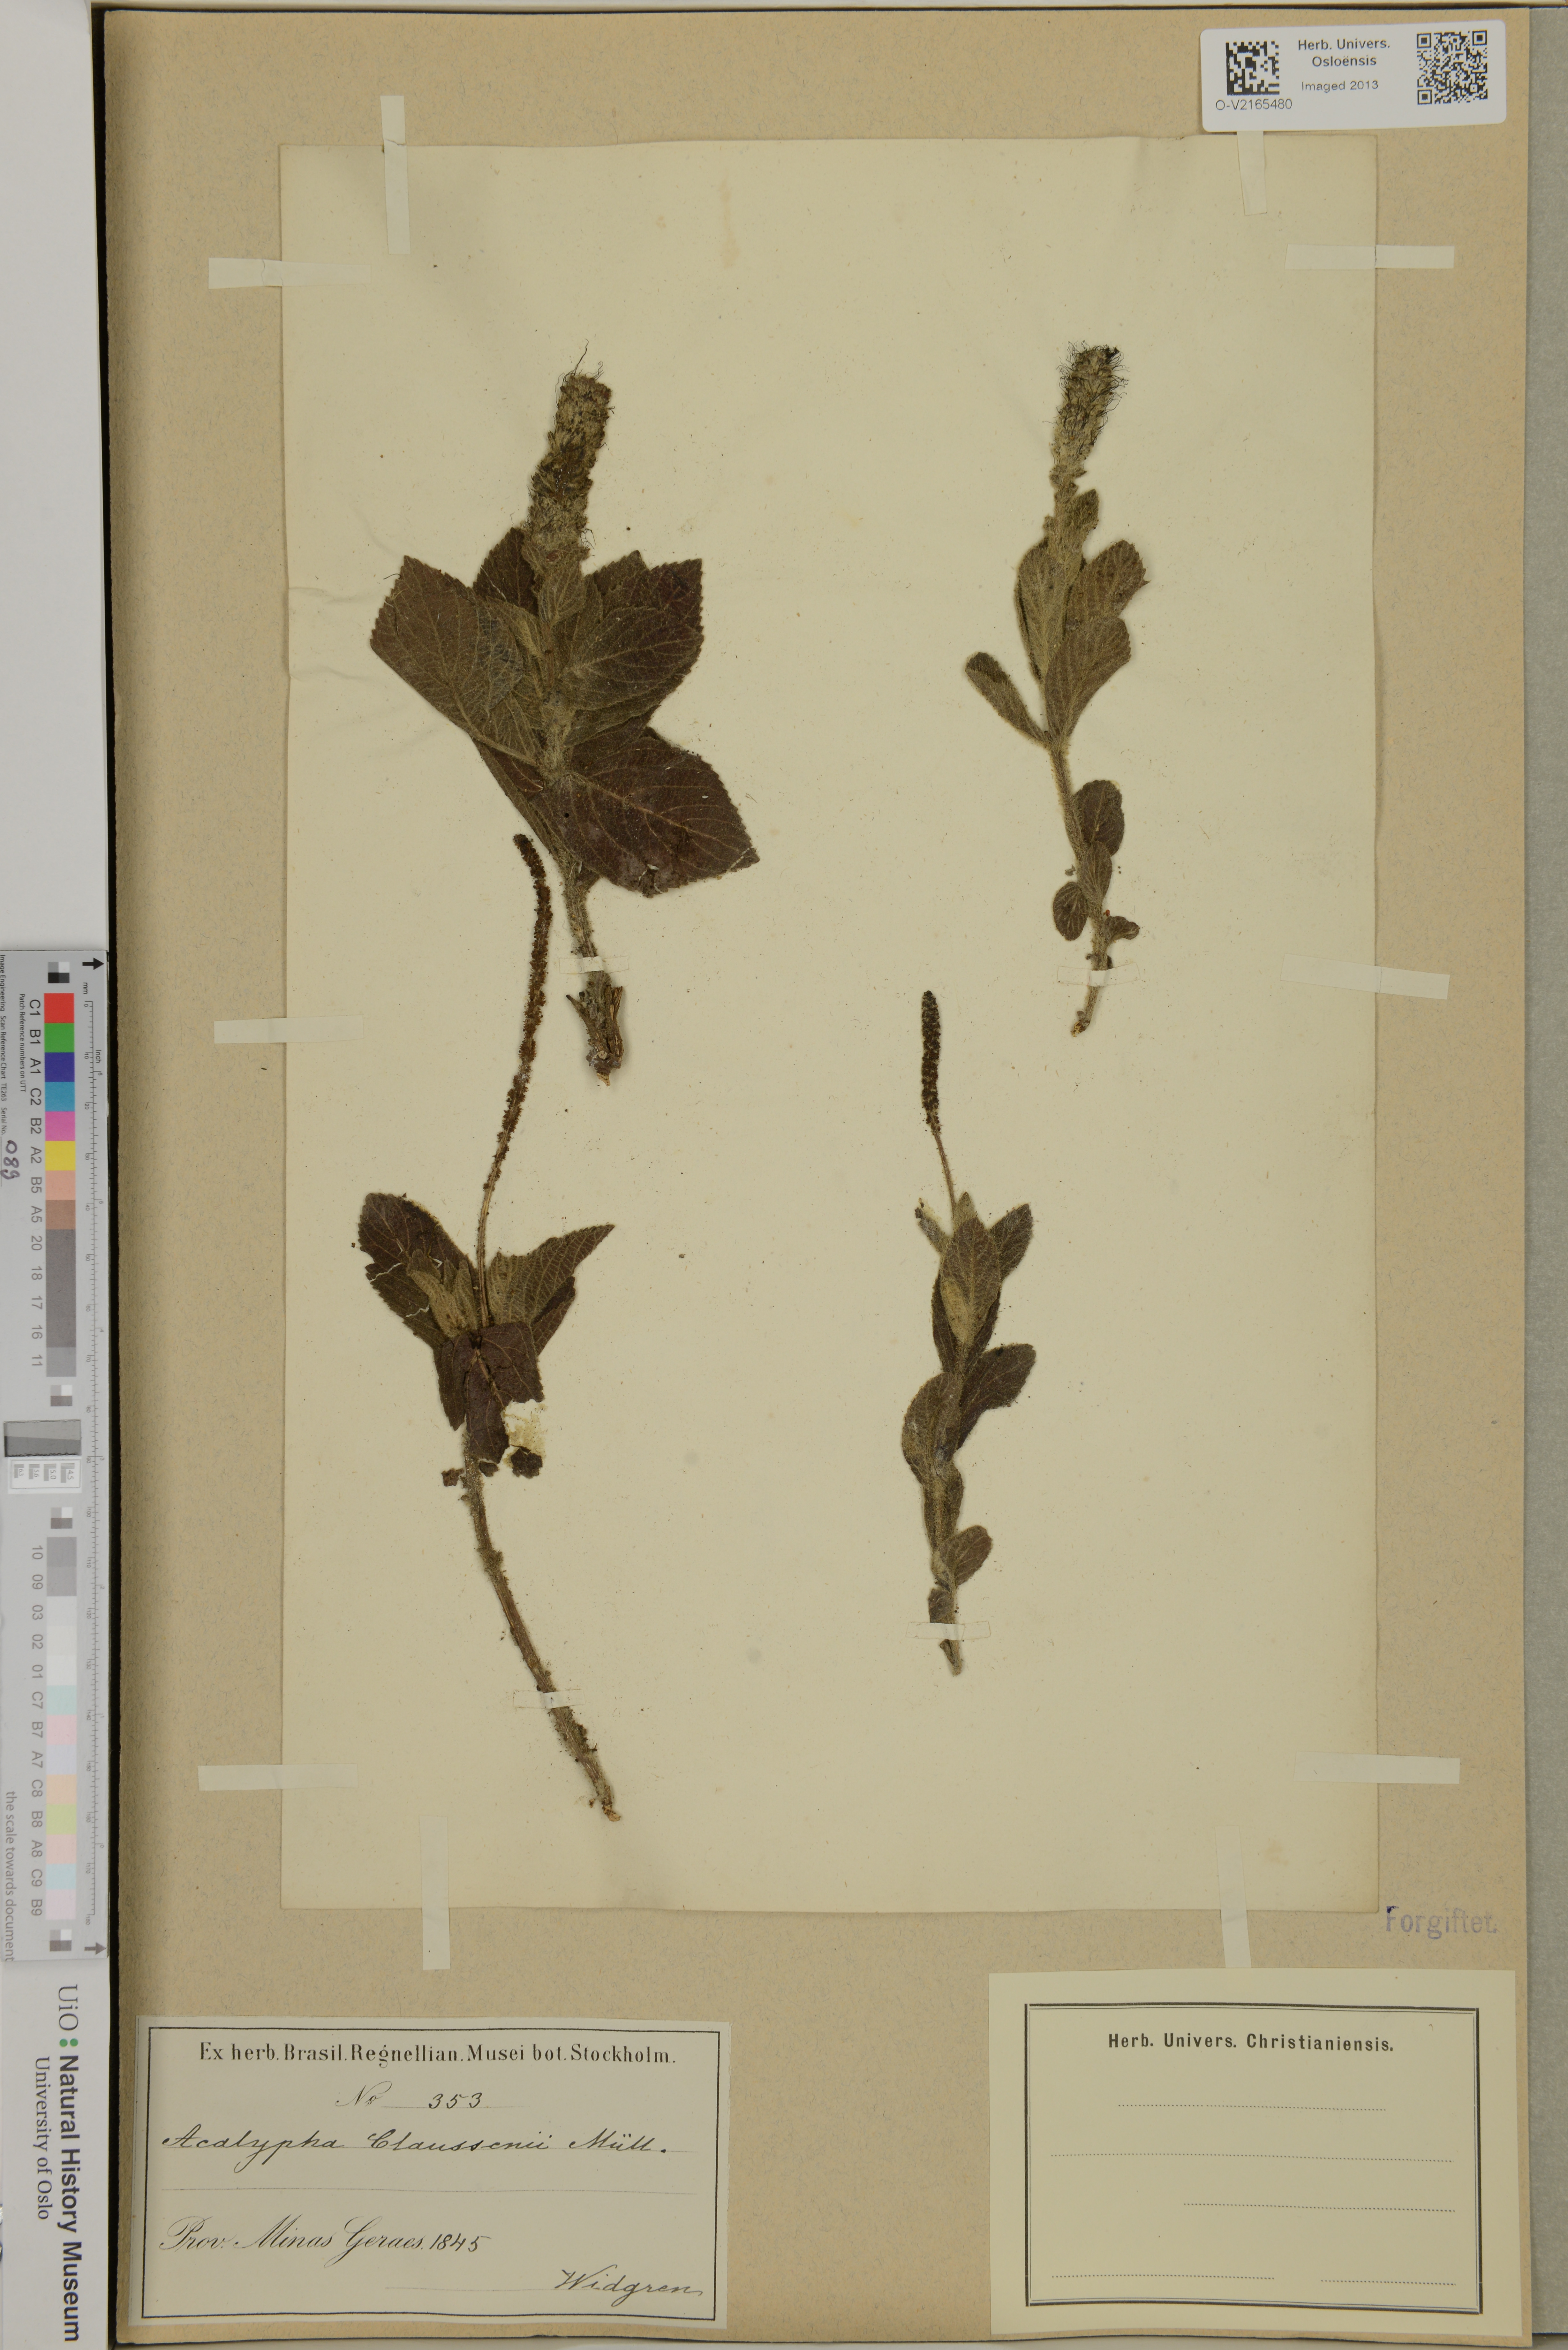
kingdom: Plantae
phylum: Tracheophyta
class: Magnoliopsida
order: Malpighiales
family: Euphorbiaceae
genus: Acalypha
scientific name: Acalypha claussenii
